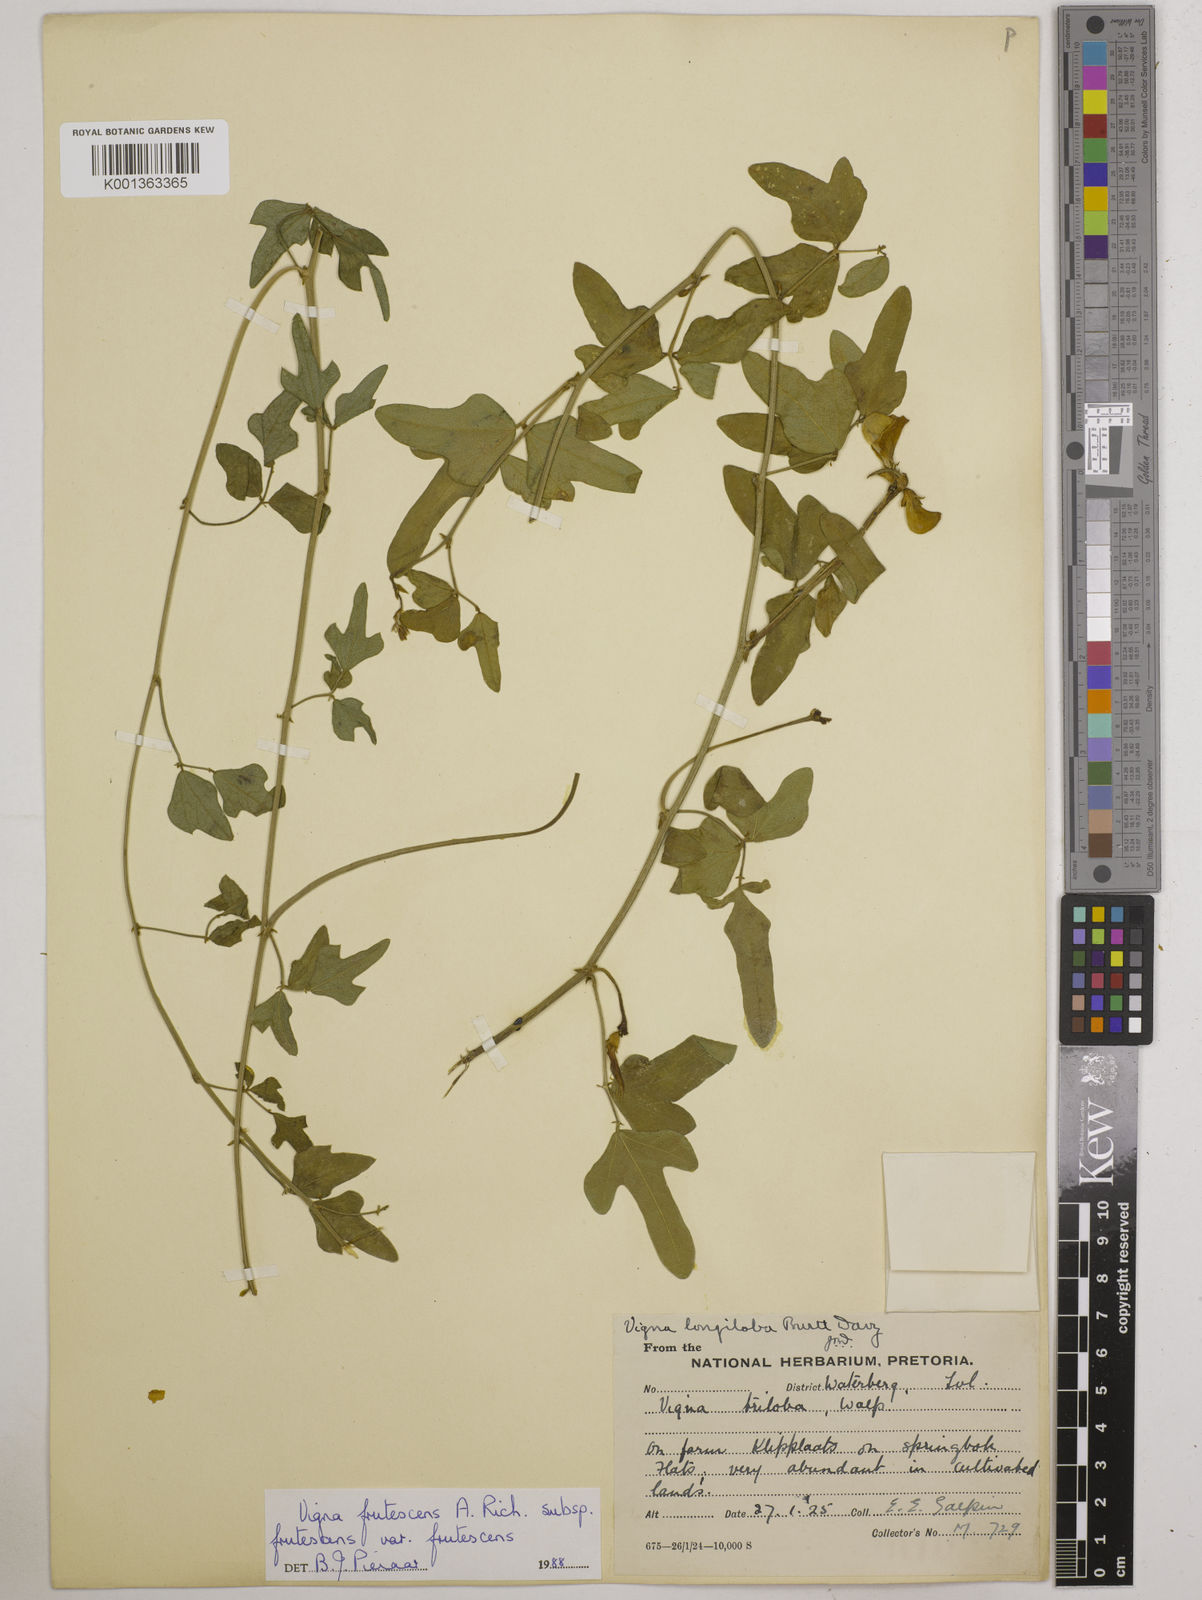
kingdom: Plantae
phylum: Tracheophyta
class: Magnoliopsida
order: Fabales
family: Fabaceae
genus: Vigna
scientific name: Vigna frutescens
